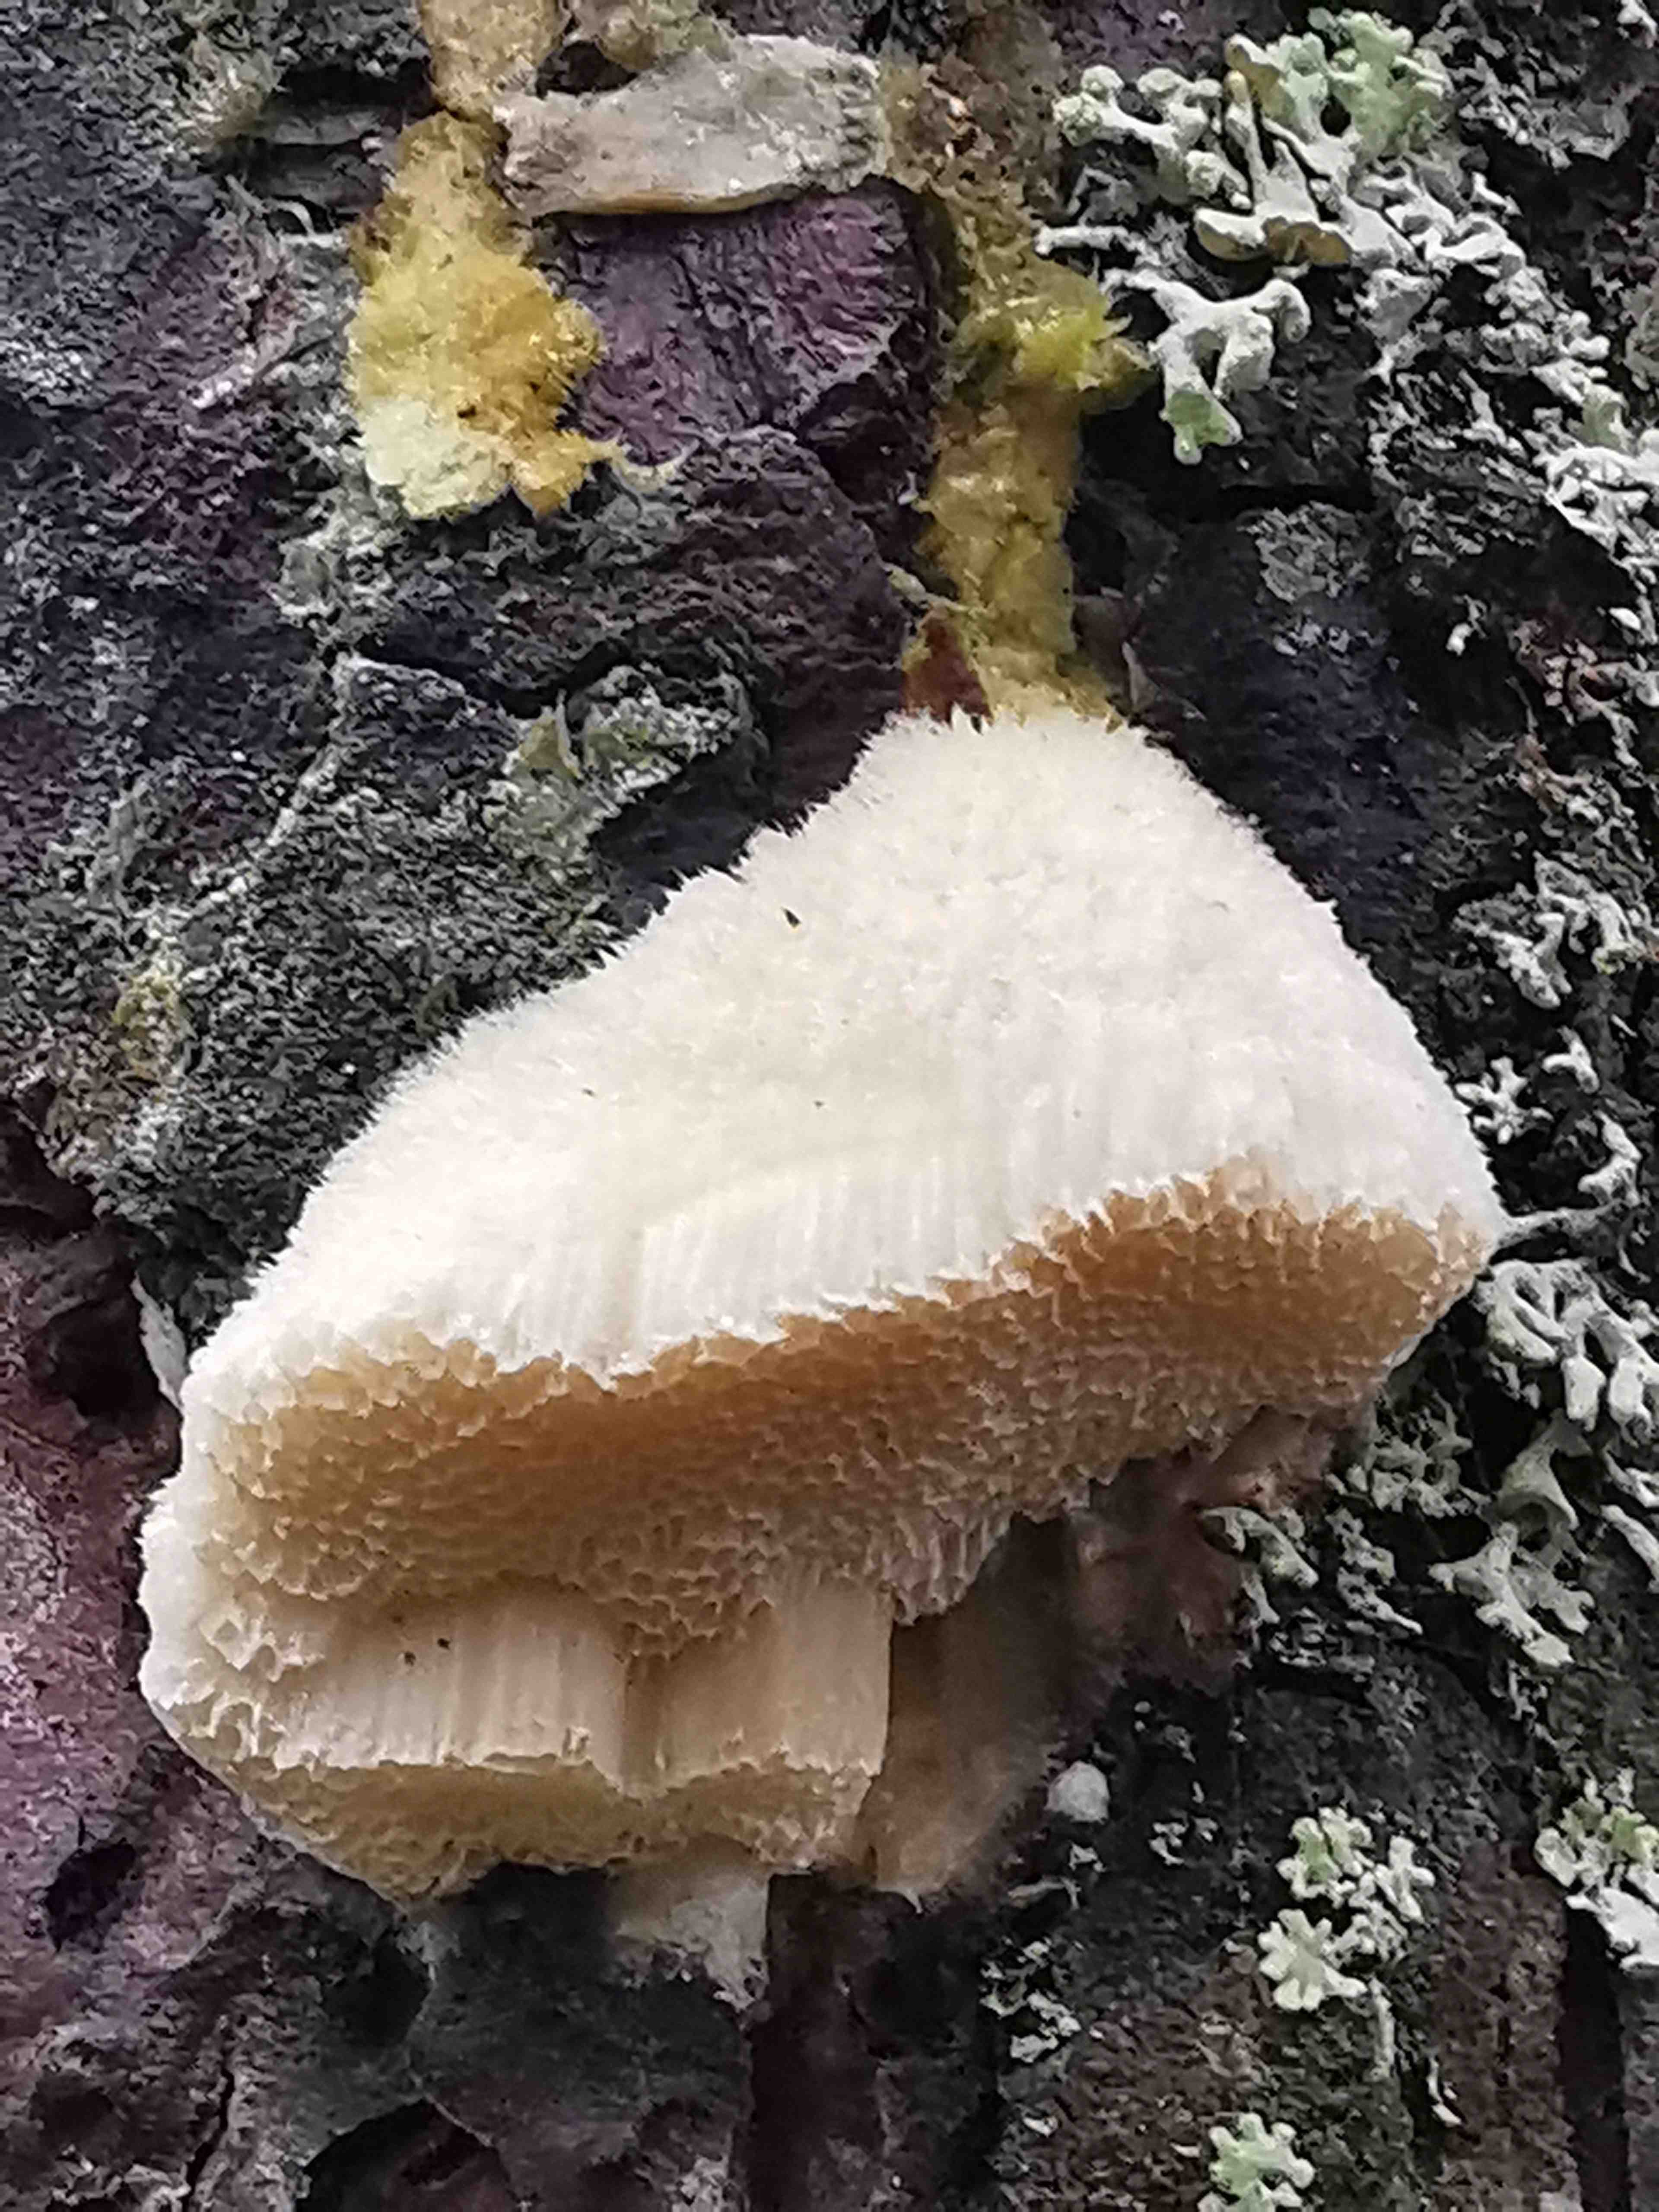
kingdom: Fungi
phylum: Basidiomycota
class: Agaricomycetes
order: Polyporales
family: Polyporaceae
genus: Diplomitoporus
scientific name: Diplomitoporus flavescens
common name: fyrre-elastikporesvamp
